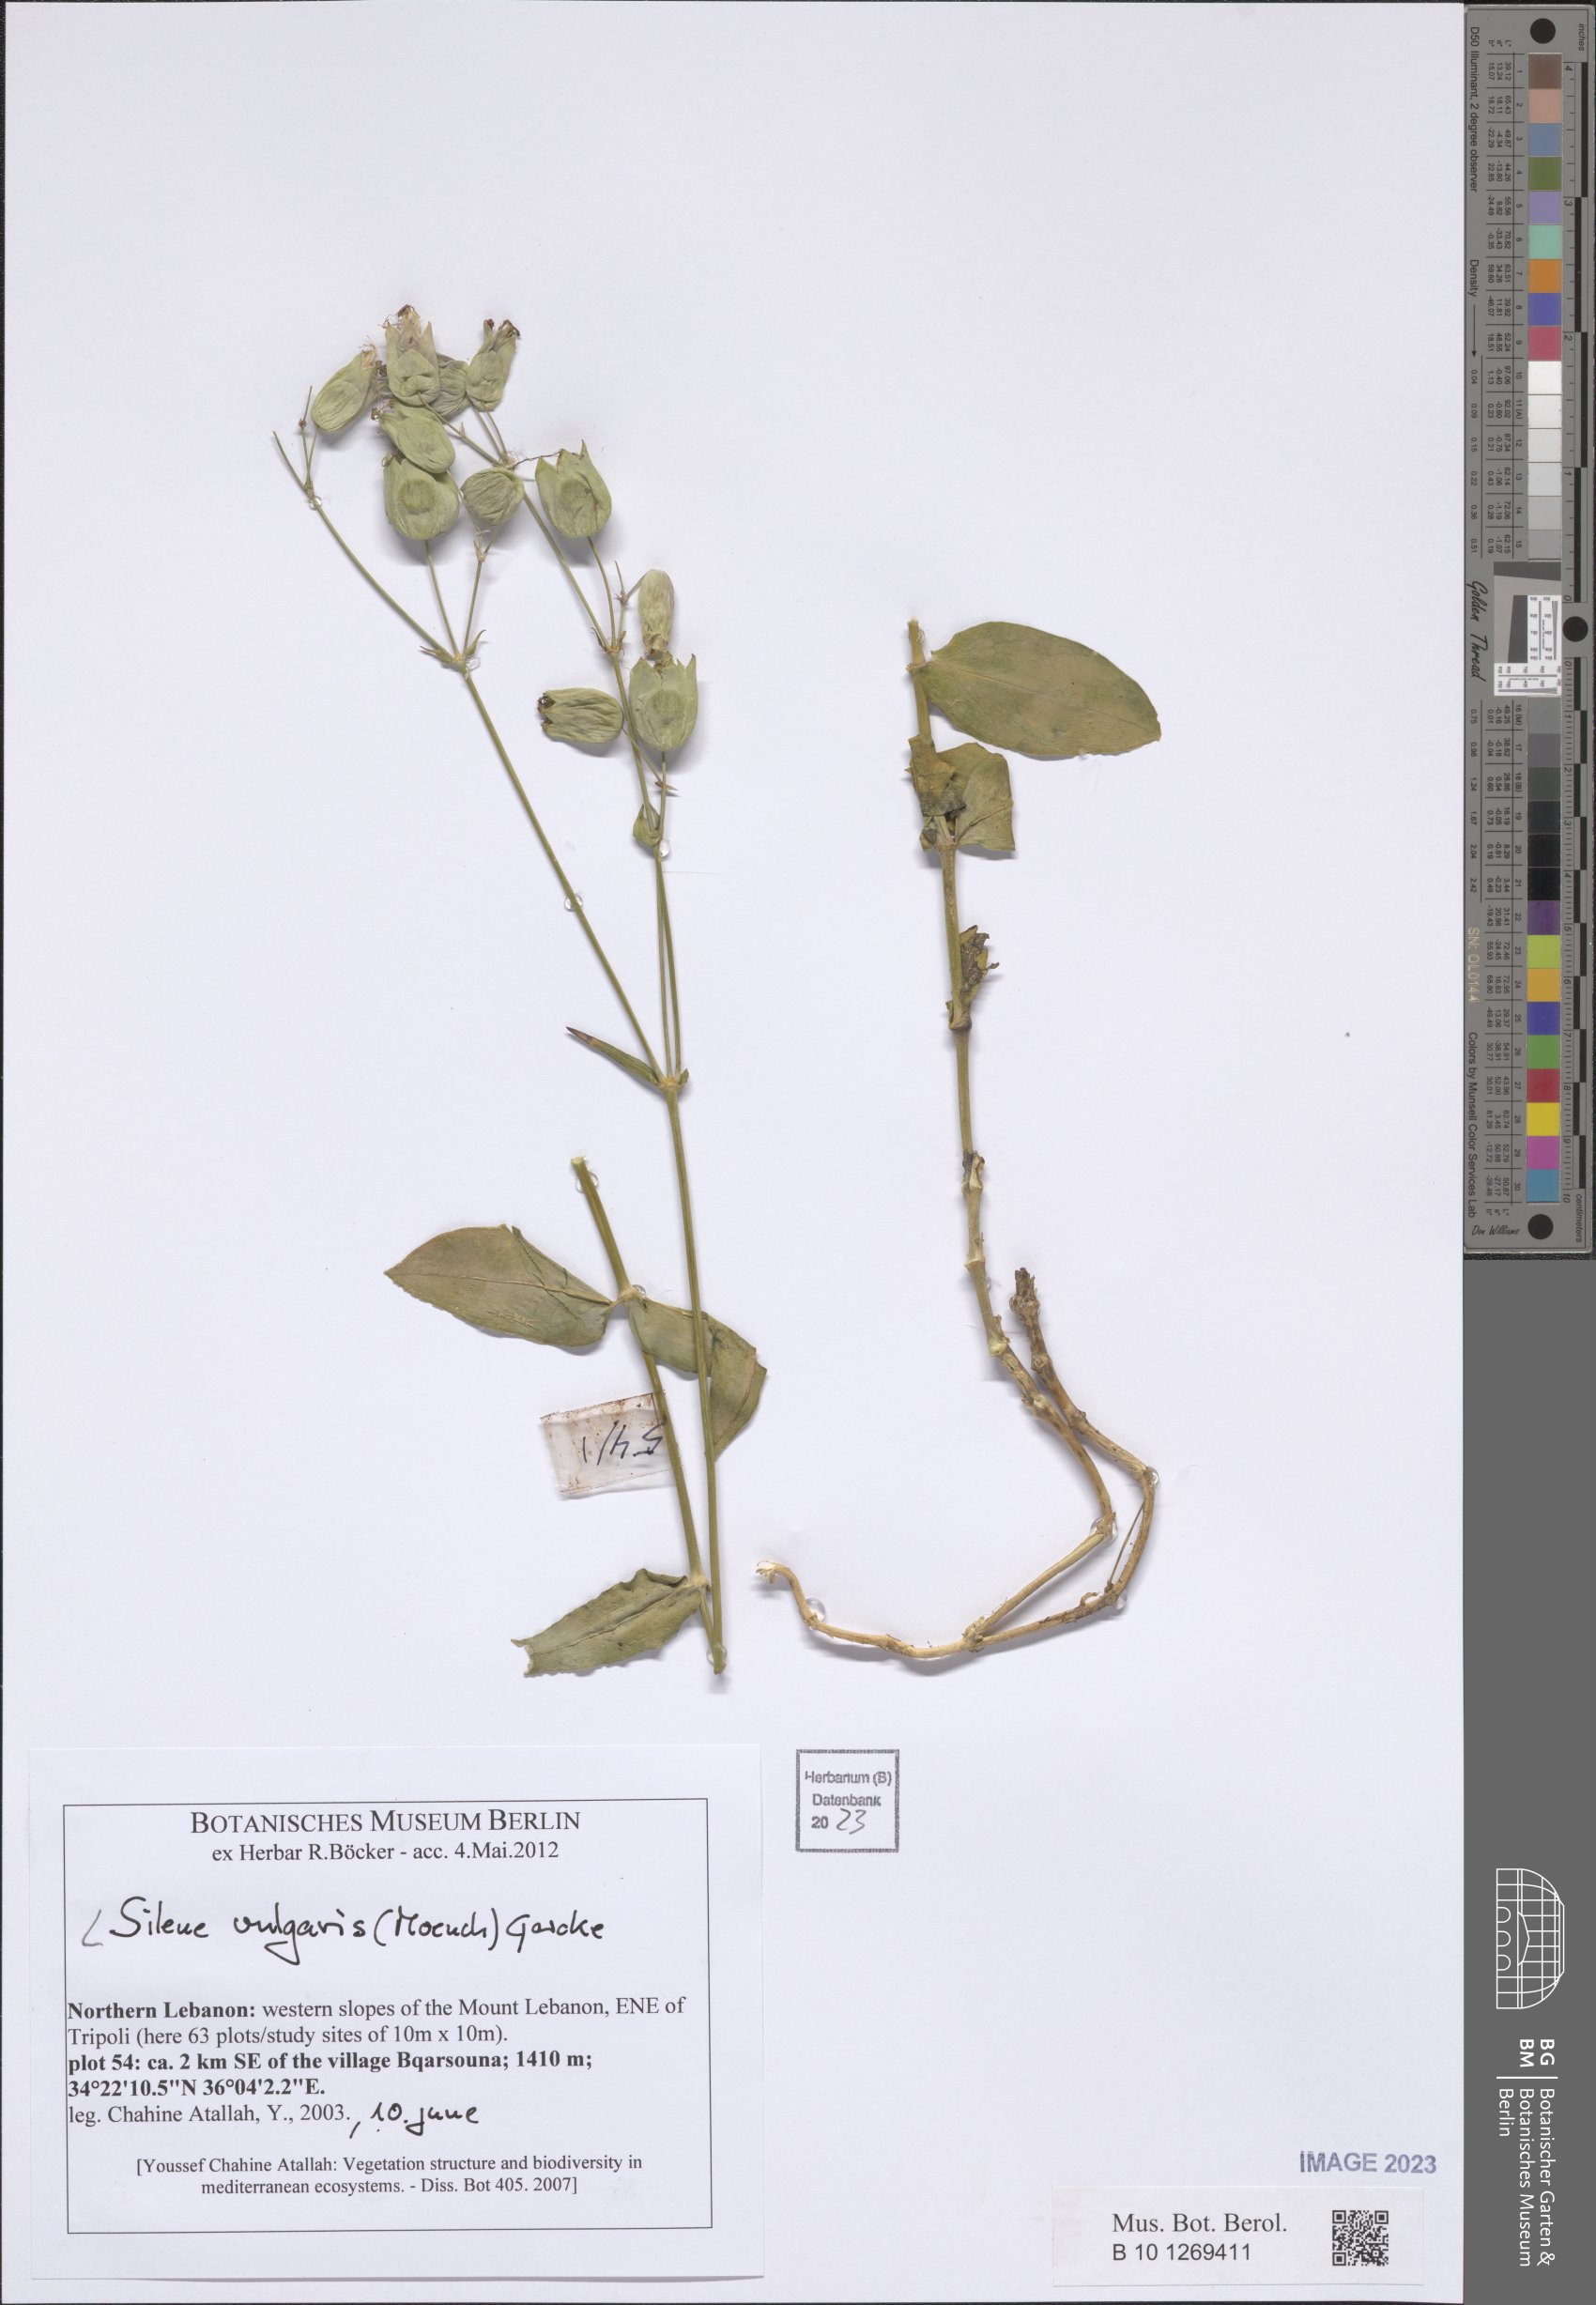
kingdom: Plantae
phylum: Tracheophyta
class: Magnoliopsida
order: Caryophyllales
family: Caryophyllaceae
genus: Silene
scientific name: Silene vulgaris
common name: Bladder campion
